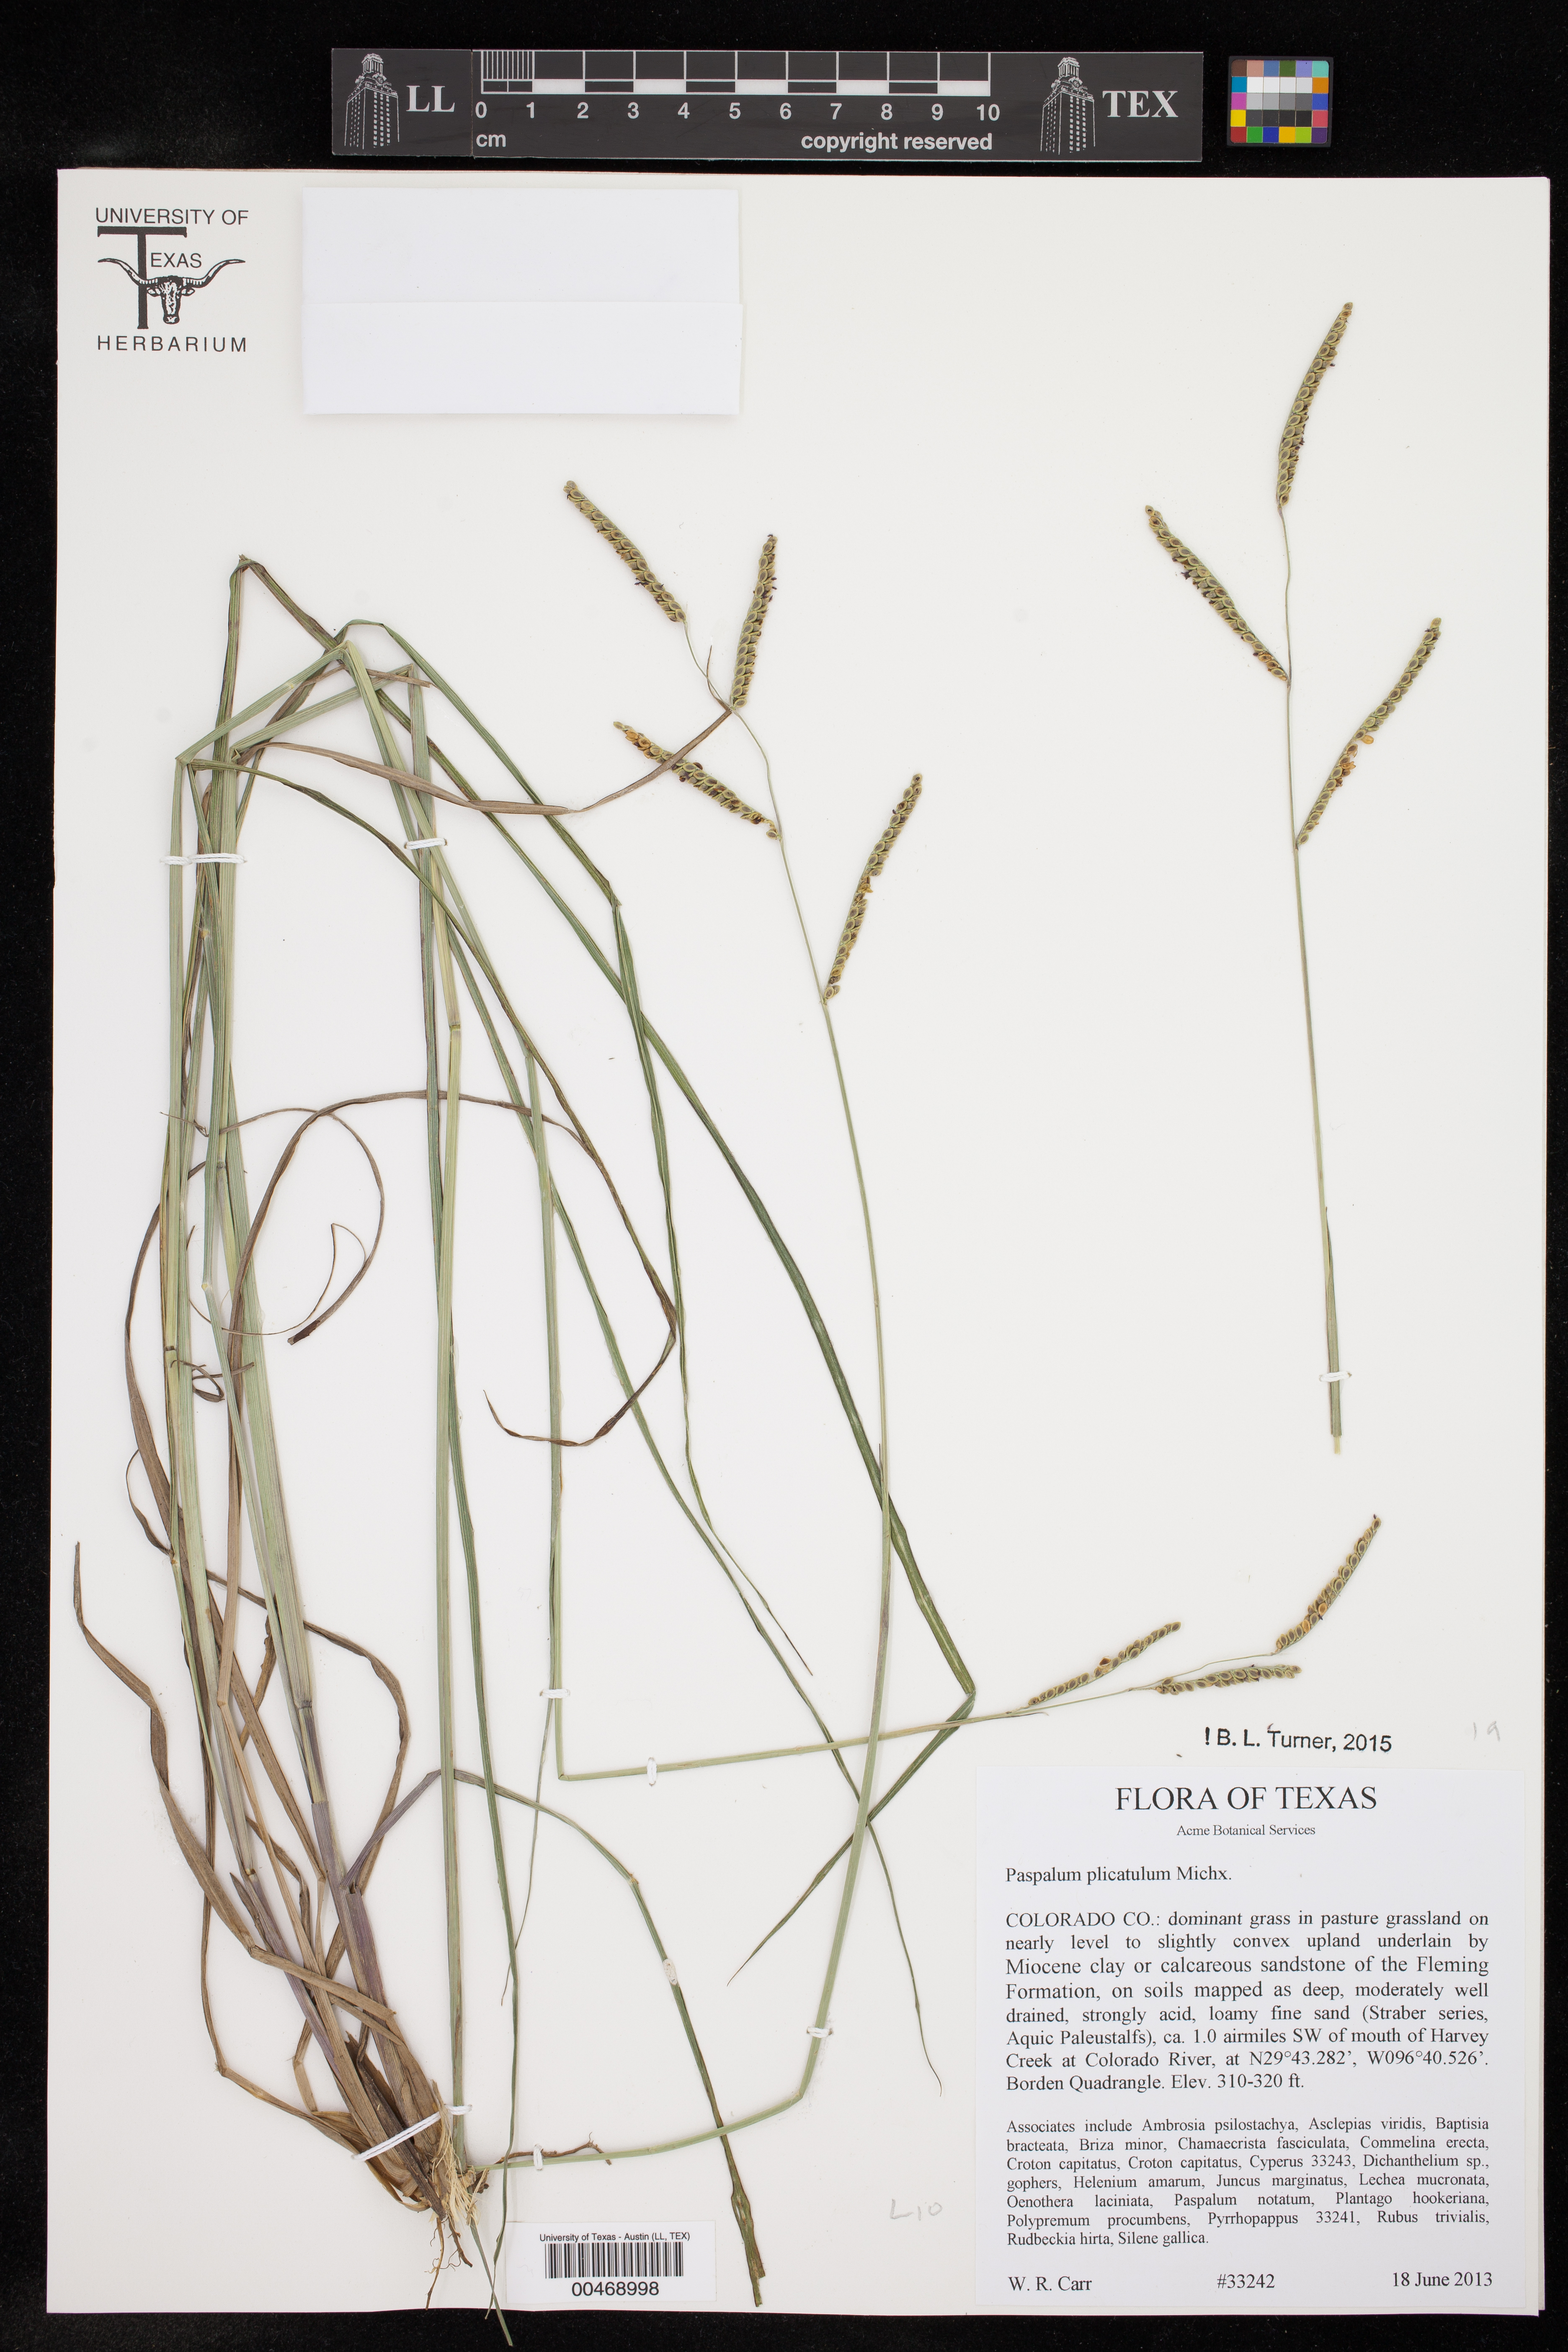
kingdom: Plantae
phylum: Tracheophyta
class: Liliopsida
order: Poales
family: Poaceae
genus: Paspalum
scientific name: Paspalum plicatulum
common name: Top paspalum
